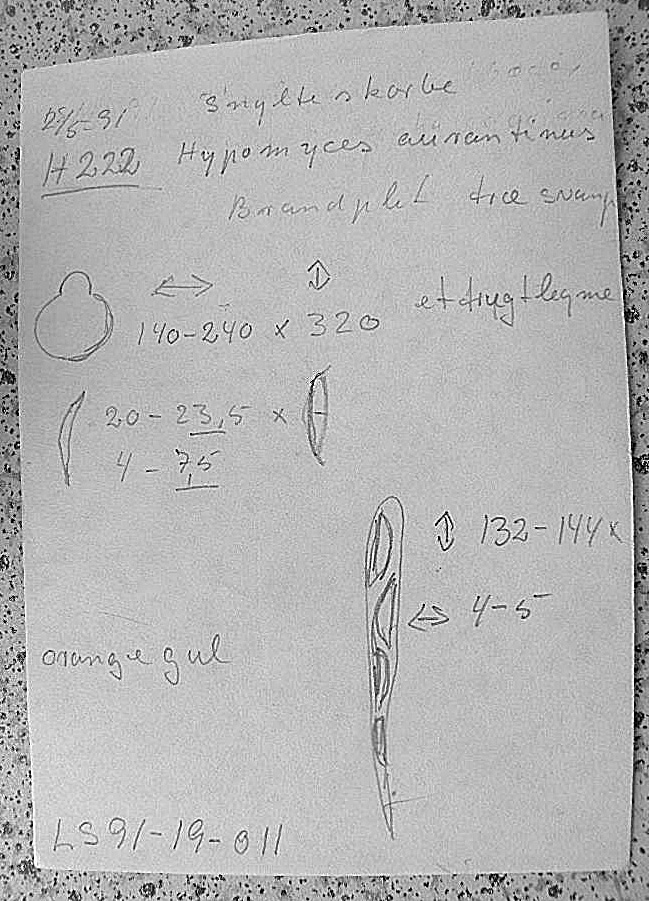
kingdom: Fungi
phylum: Ascomycota
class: Sordariomycetes
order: Hypocreales
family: Hypocreaceae
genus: Hypomyces
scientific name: Hypomyces aurantius
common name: almindelig snylteskorpe
